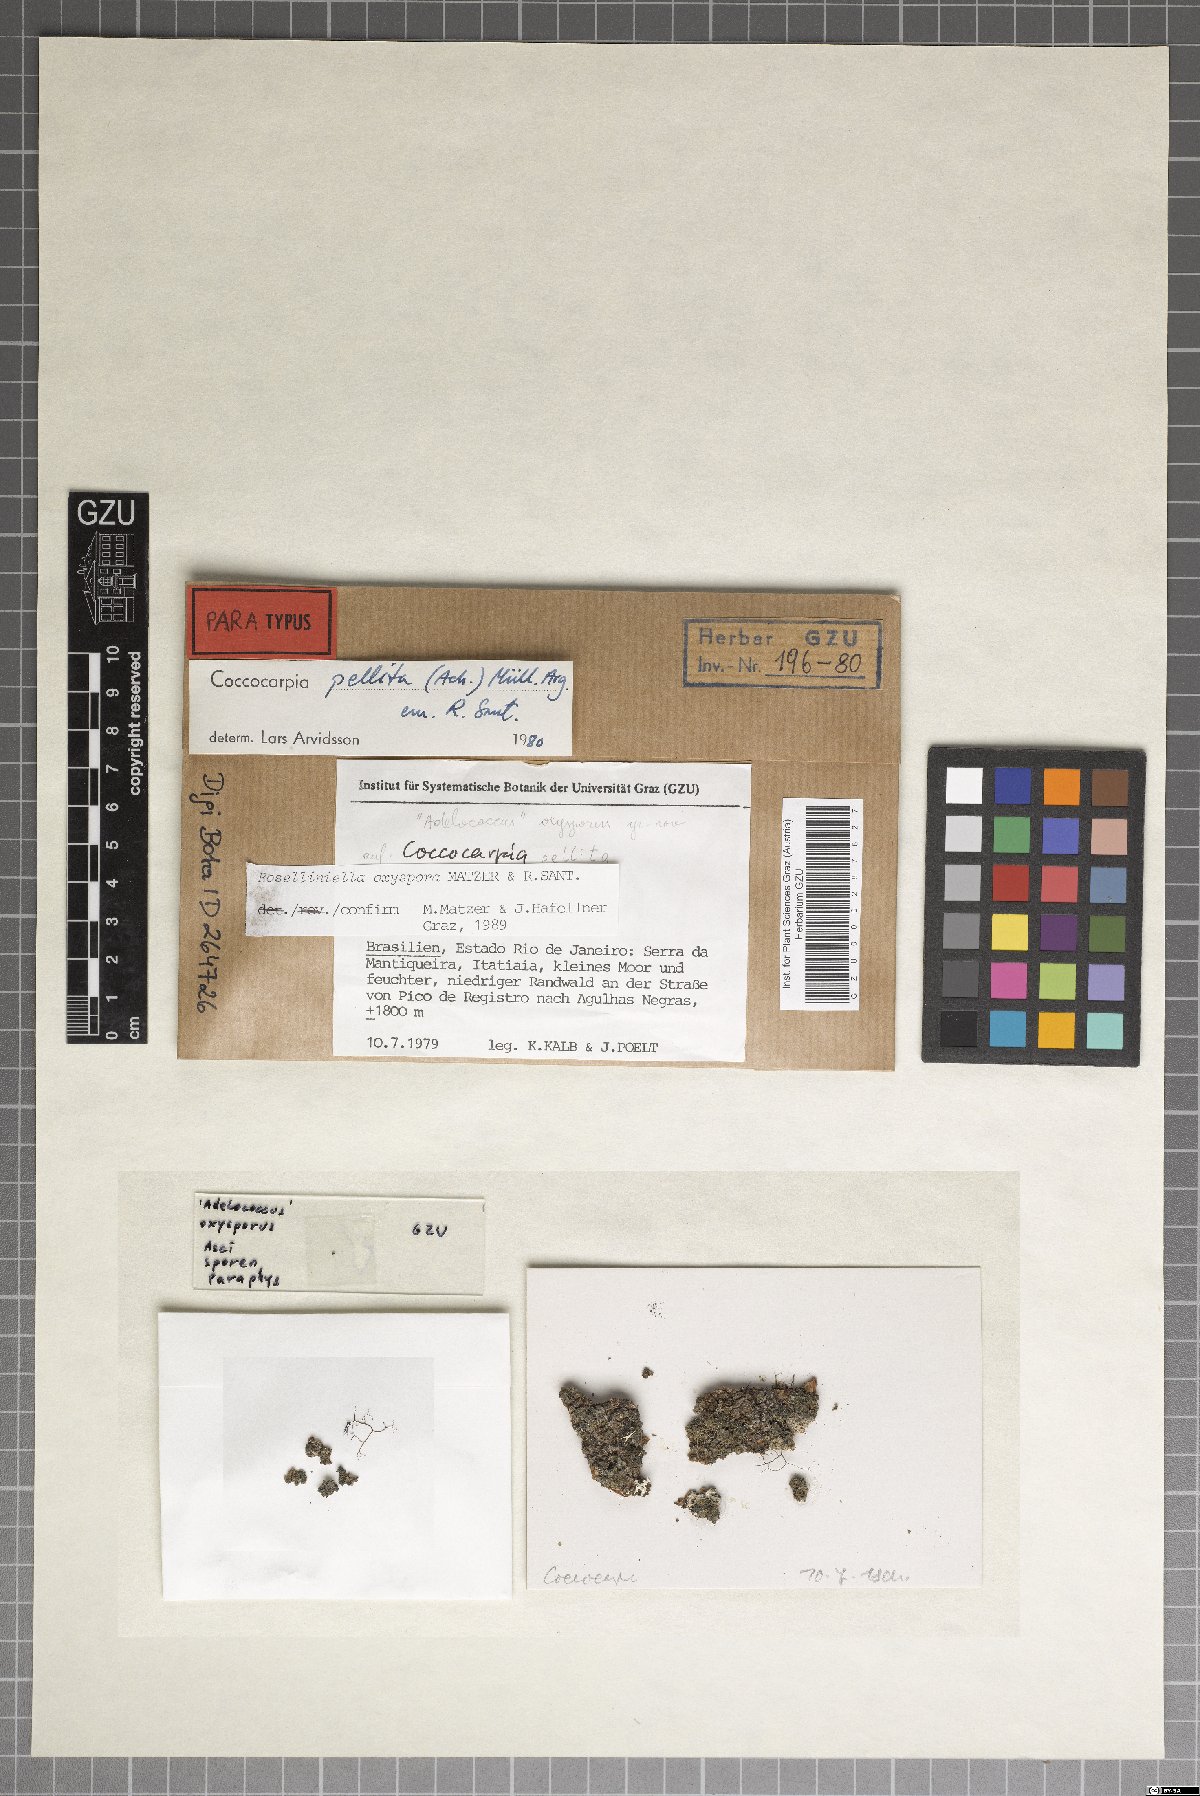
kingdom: Fungi
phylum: Ascomycota
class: Sordariomycetes
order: Sordariales
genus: Roselliniella
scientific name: Roselliniella oxyspora
